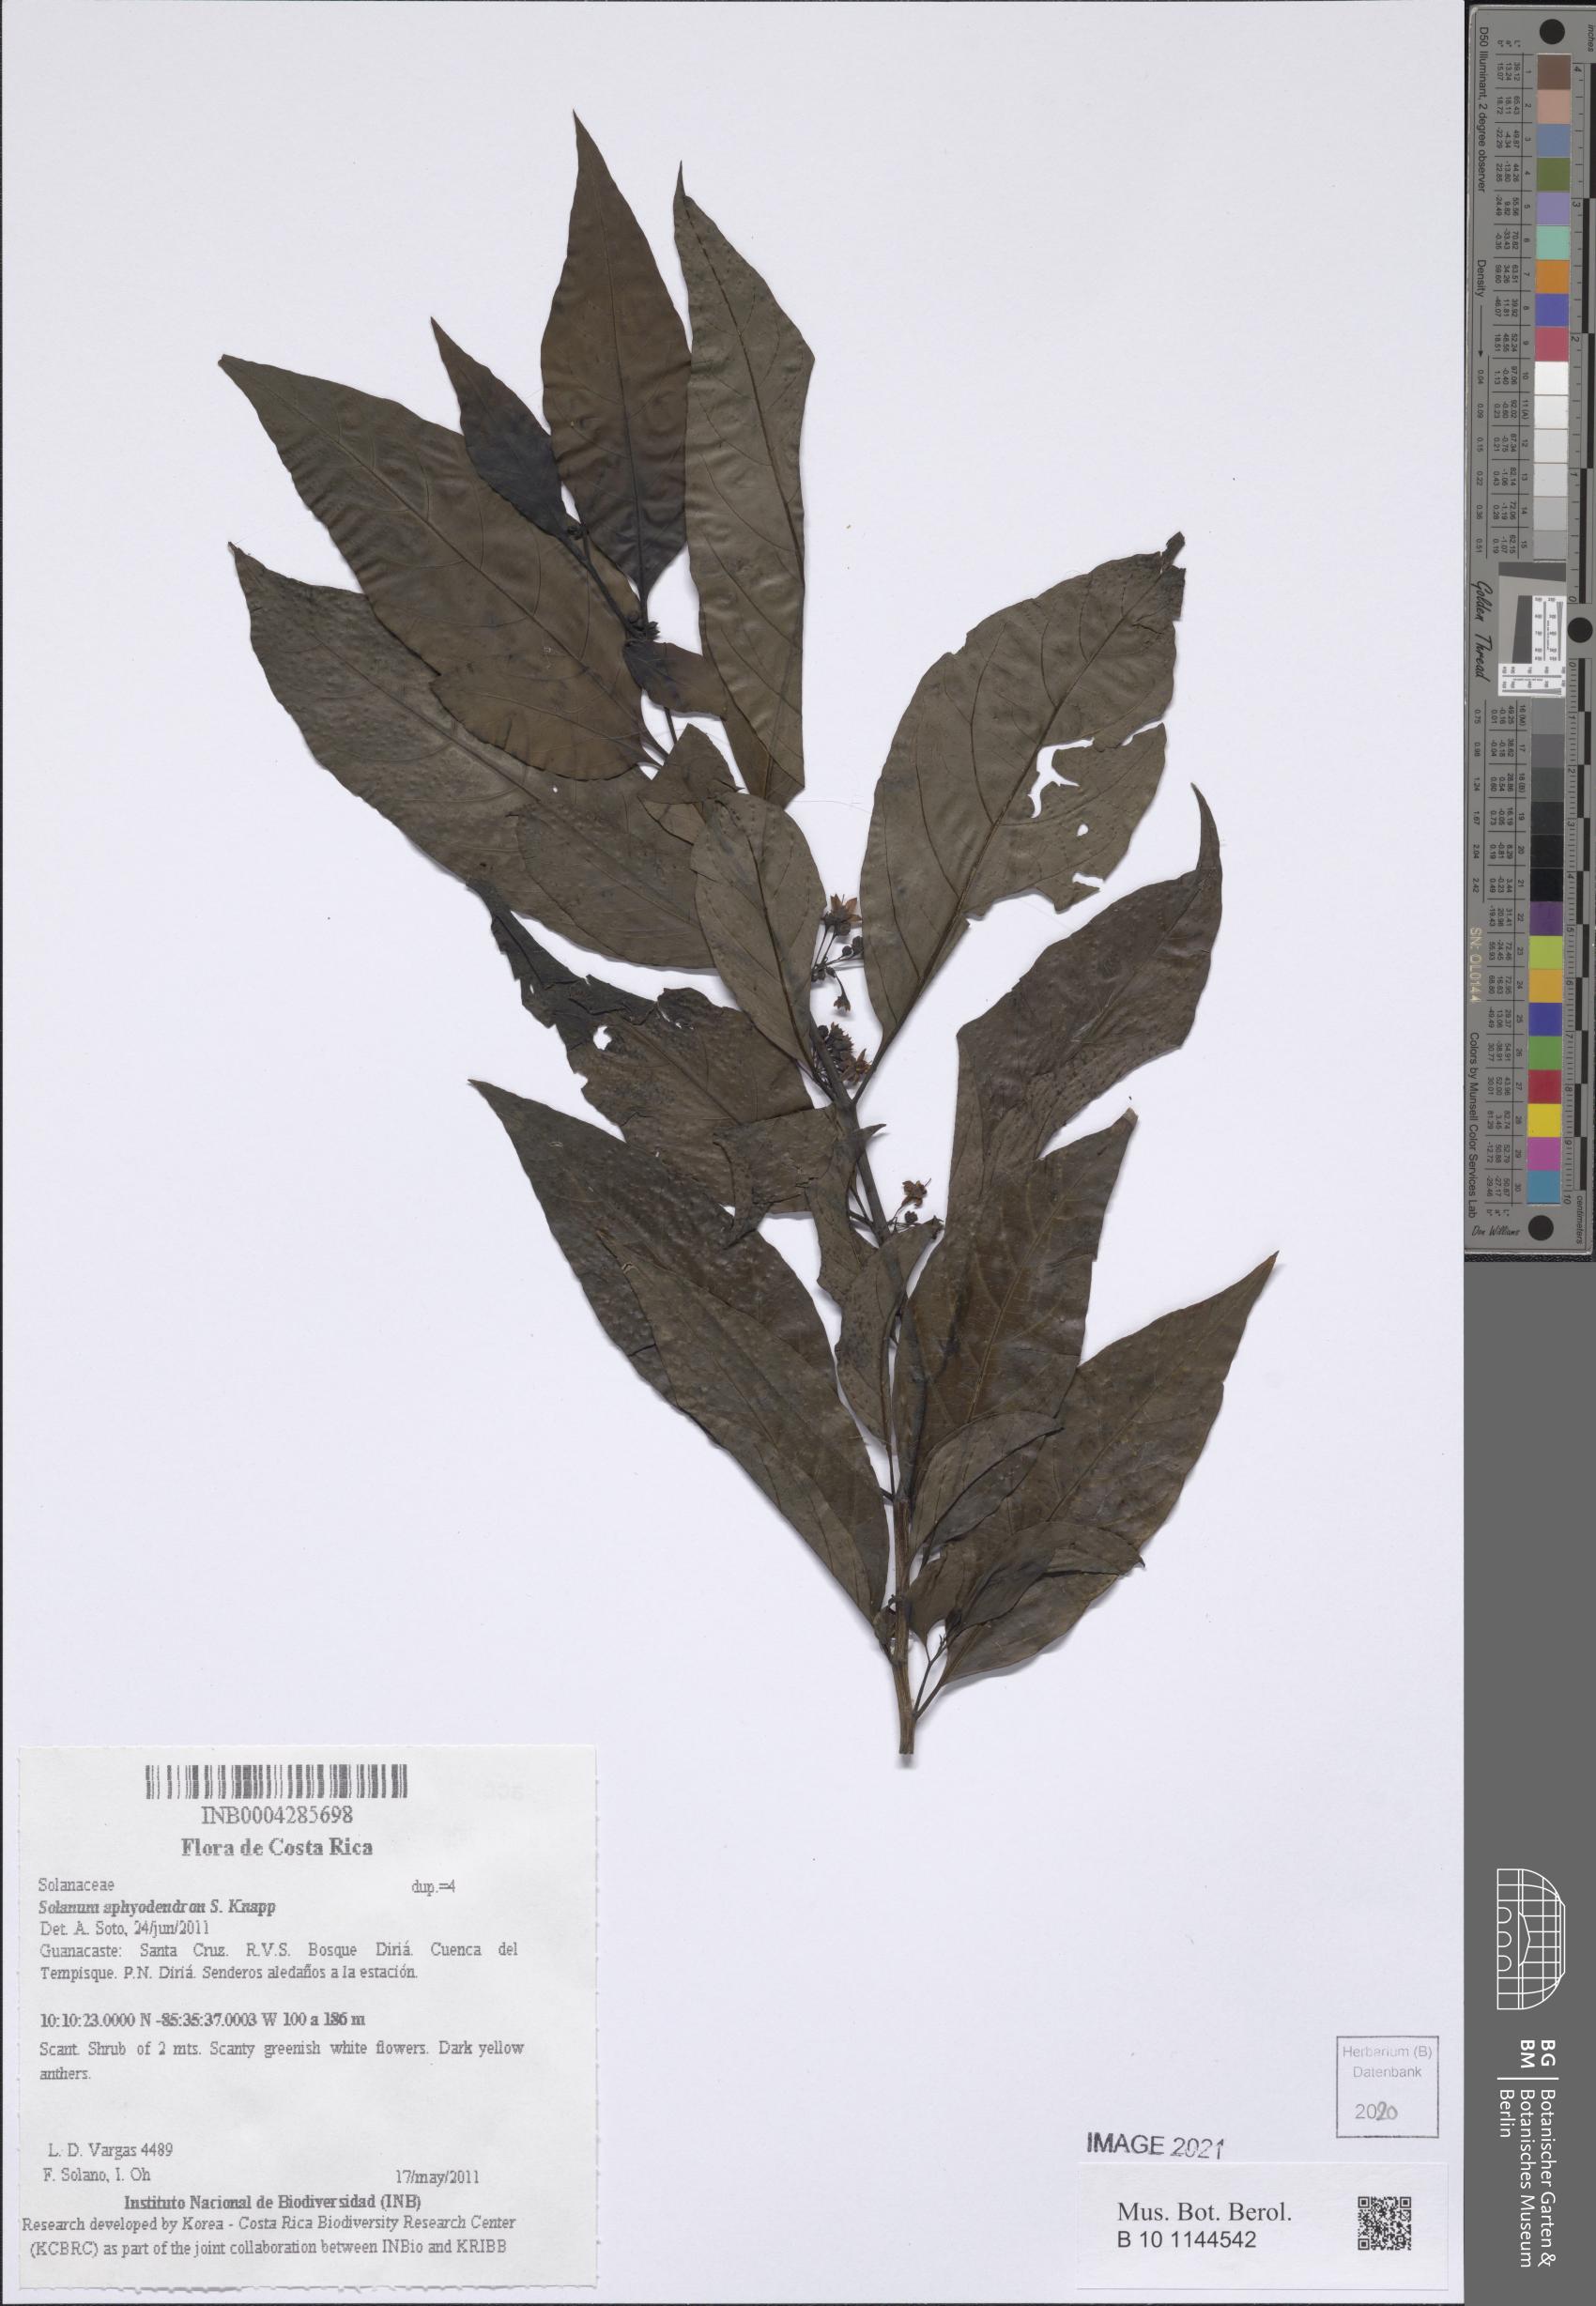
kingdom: Plantae
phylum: Tracheophyta
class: Magnoliopsida
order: Solanales
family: Solanaceae
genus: Solanum
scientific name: Solanum aphyodendron
